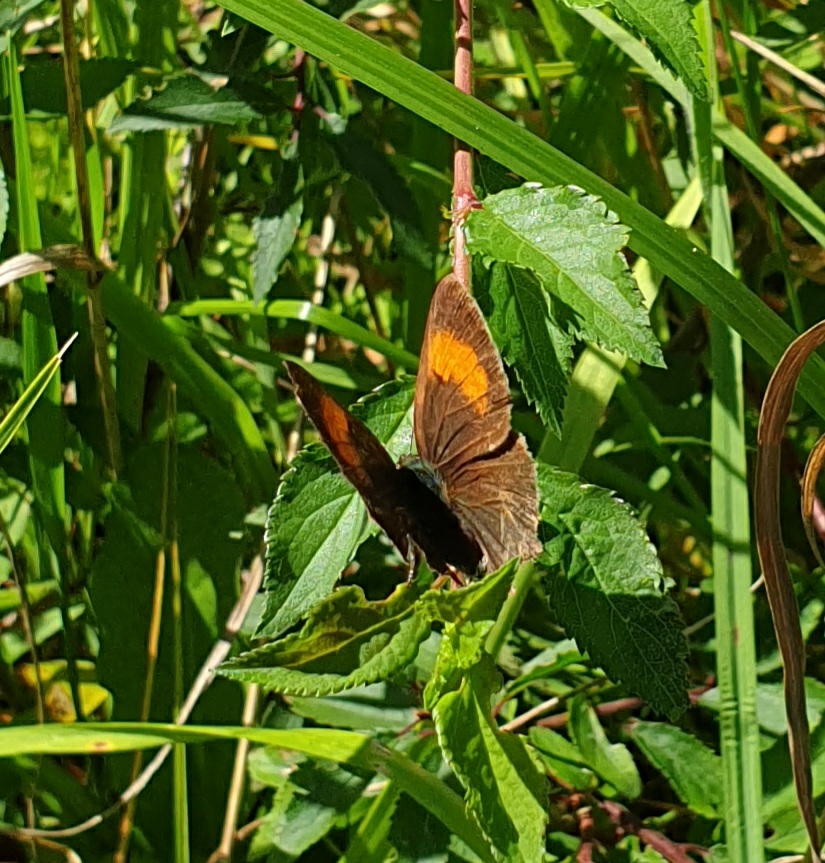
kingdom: Animalia
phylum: Arthropoda
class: Insecta
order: Lepidoptera
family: Lycaenidae
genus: Thecla
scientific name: Thecla betulae
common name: Guldhale
